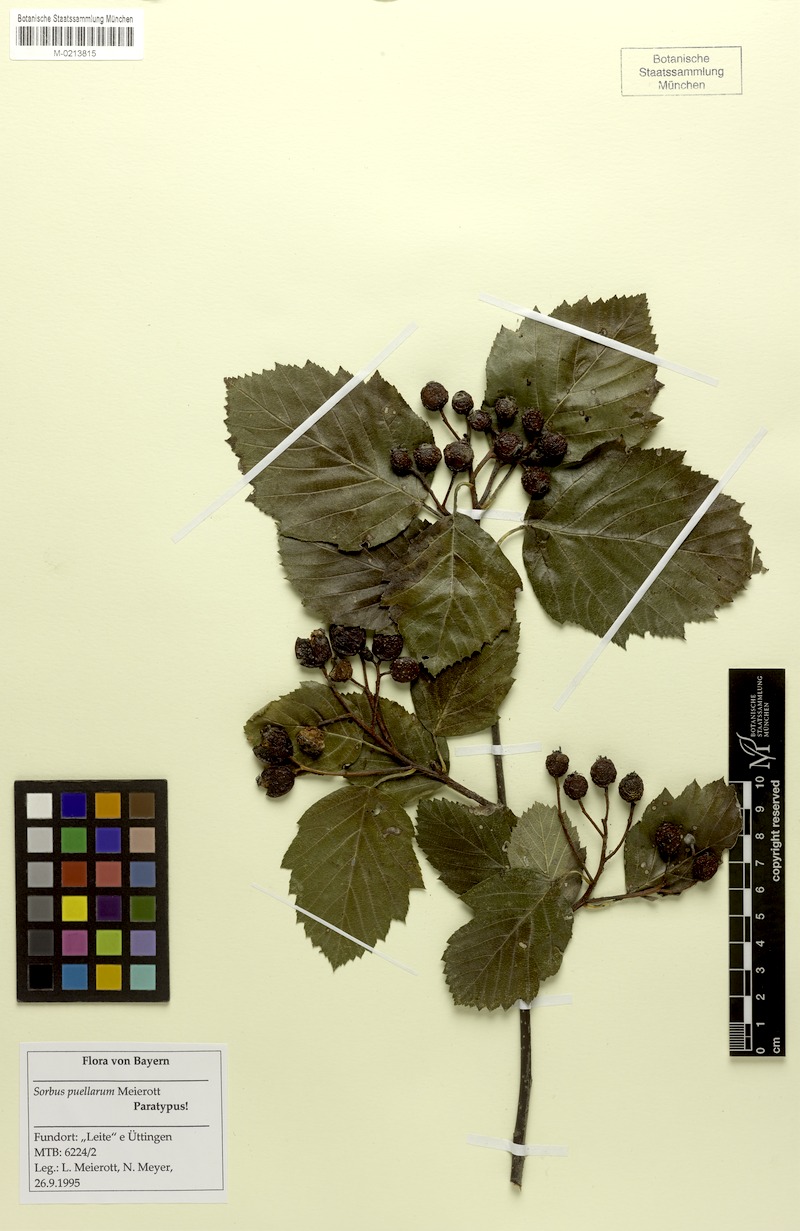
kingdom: Plantae
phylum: Tracheophyta
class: Magnoliopsida
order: Rosales
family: Rosaceae
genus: Karpatiosorbus
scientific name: Karpatiosorbus puellarum
